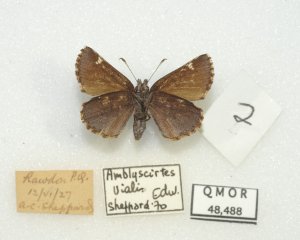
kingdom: Animalia
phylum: Arthropoda
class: Insecta
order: Lepidoptera
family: Hesperiidae
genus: Mastor
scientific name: Mastor vialis
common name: Common Roadside-Skipper
